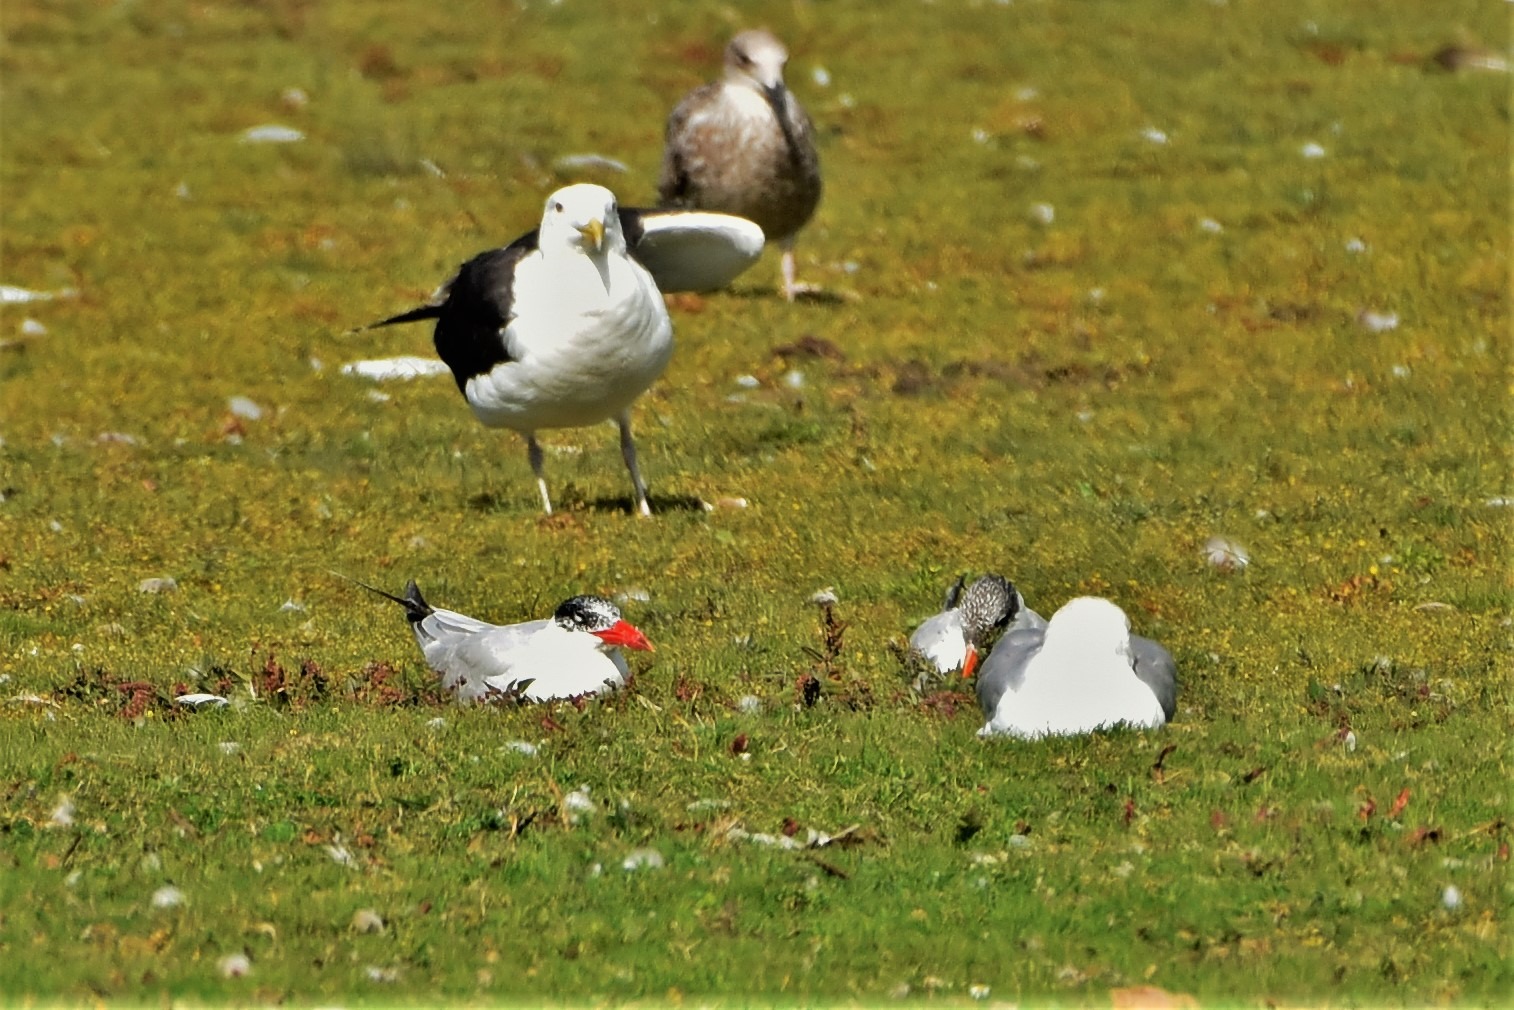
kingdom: Animalia
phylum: Chordata
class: Aves
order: Charadriiformes
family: Laridae
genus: Hydroprogne
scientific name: Hydroprogne caspia
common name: Rovterne
